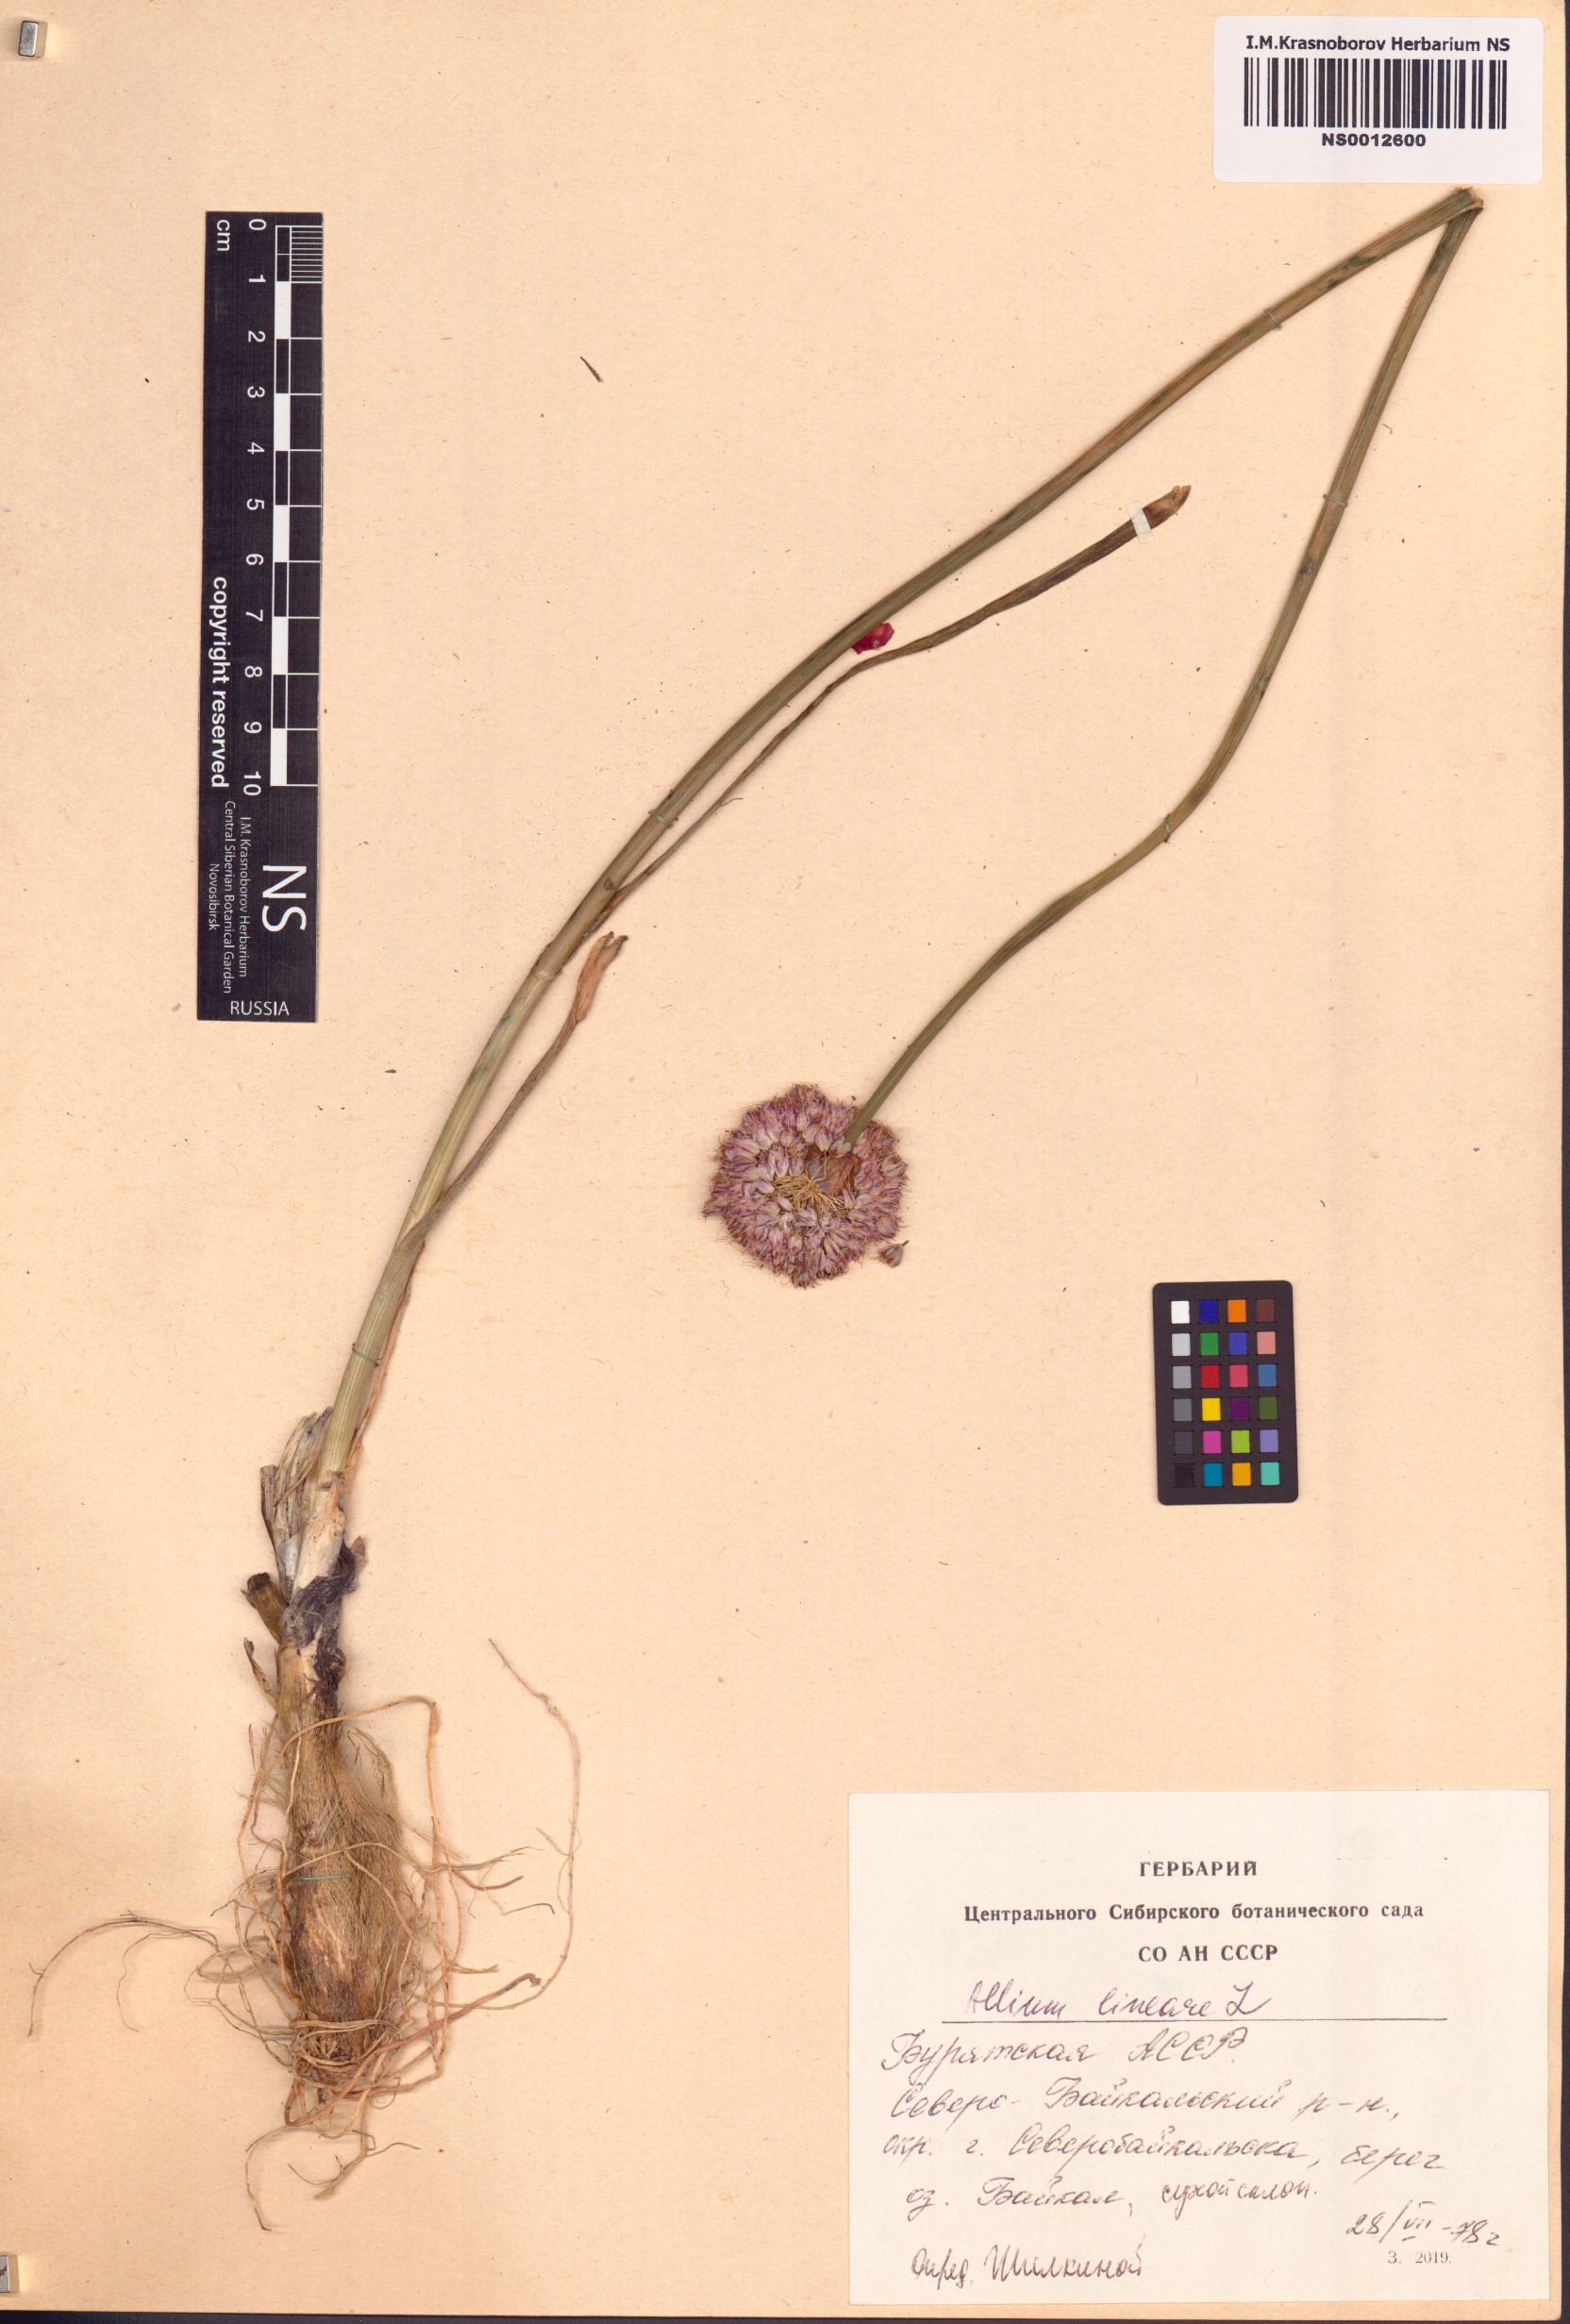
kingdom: Plantae
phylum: Tracheophyta
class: Liliopsida
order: Asparagales
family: Amaryllidaceae
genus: Allium
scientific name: Allium lineare
